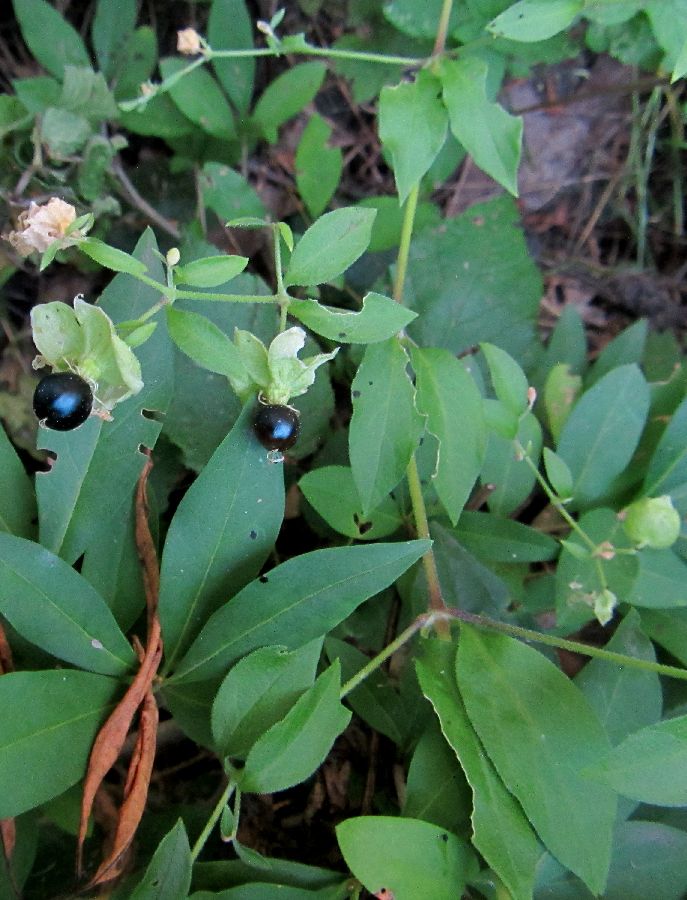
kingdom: Plantae
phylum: Tracheophyta
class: Magnoliopsida
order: Caryophyllales
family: Caryophyllaceae
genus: Silene
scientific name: Silene baccifera
